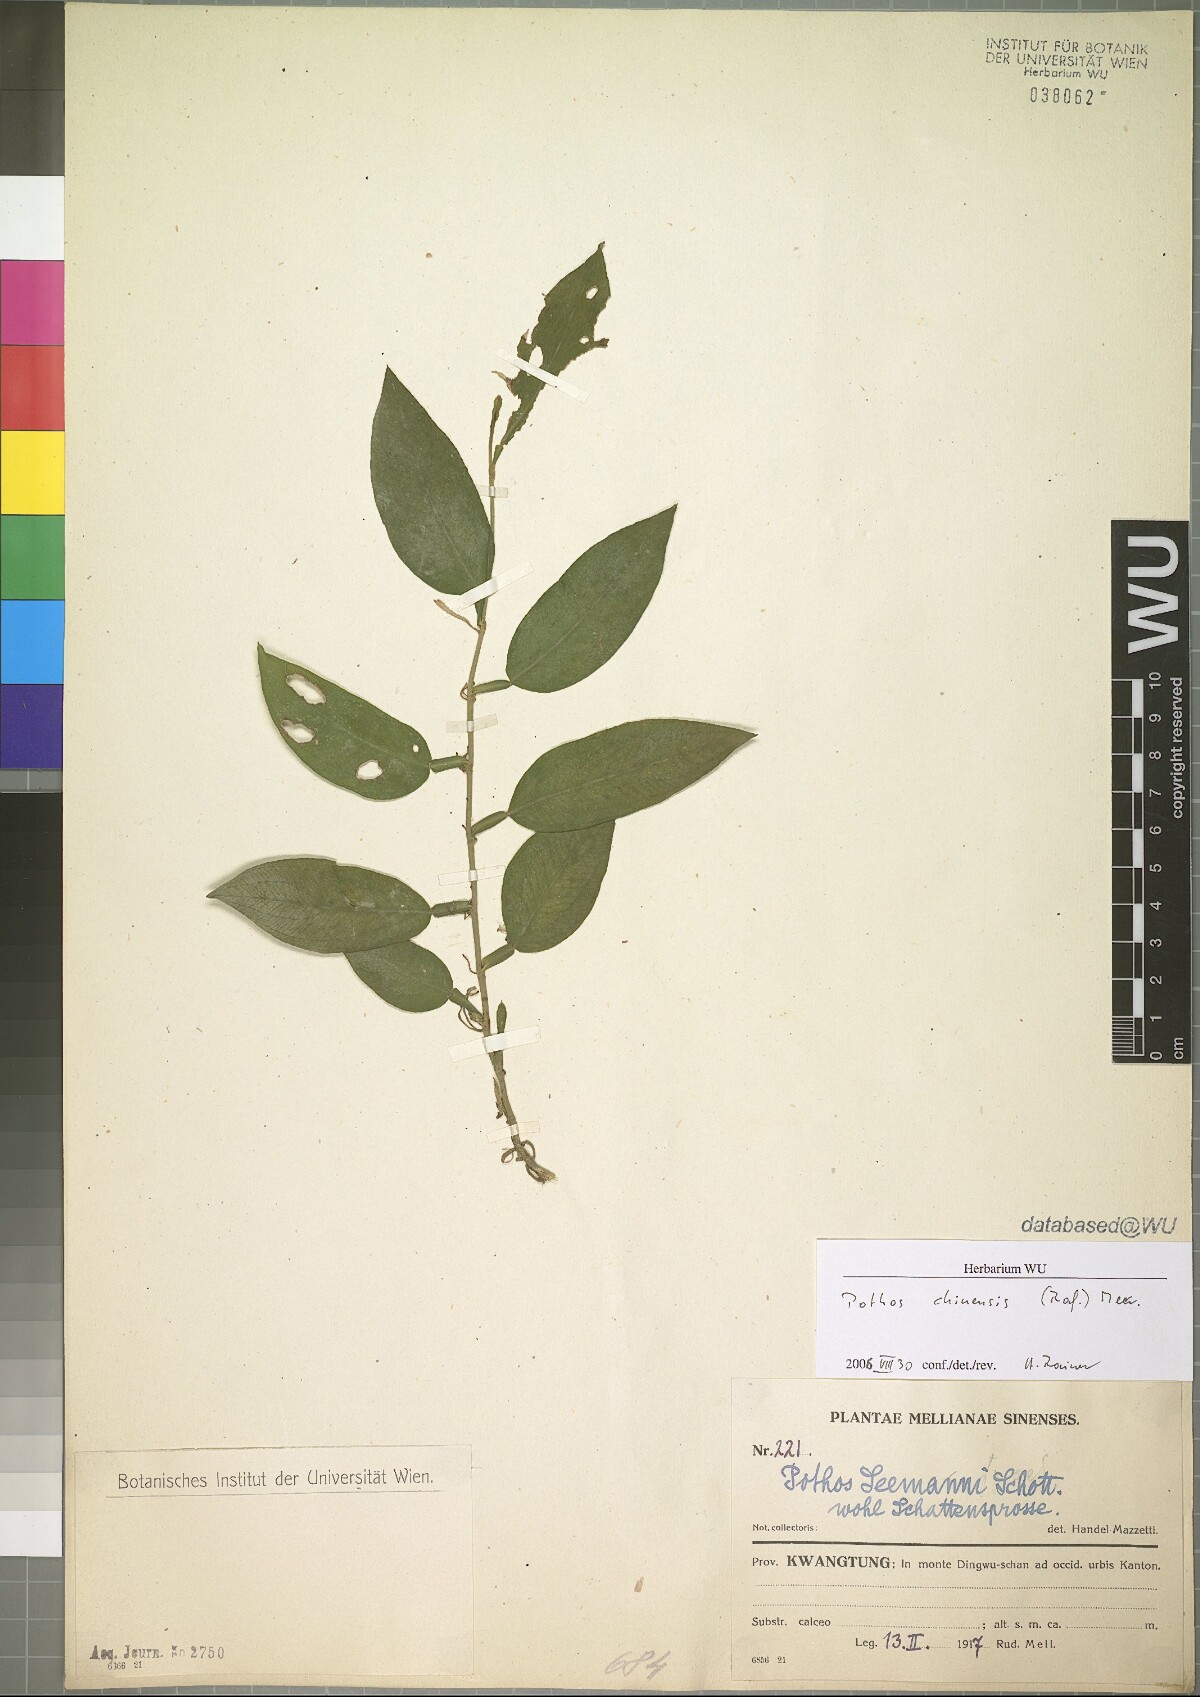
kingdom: Plantae
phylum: Tracheophyta
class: Liliopsida
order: Alismatales
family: Araceae
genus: Pothos
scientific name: Pothos chinensis
